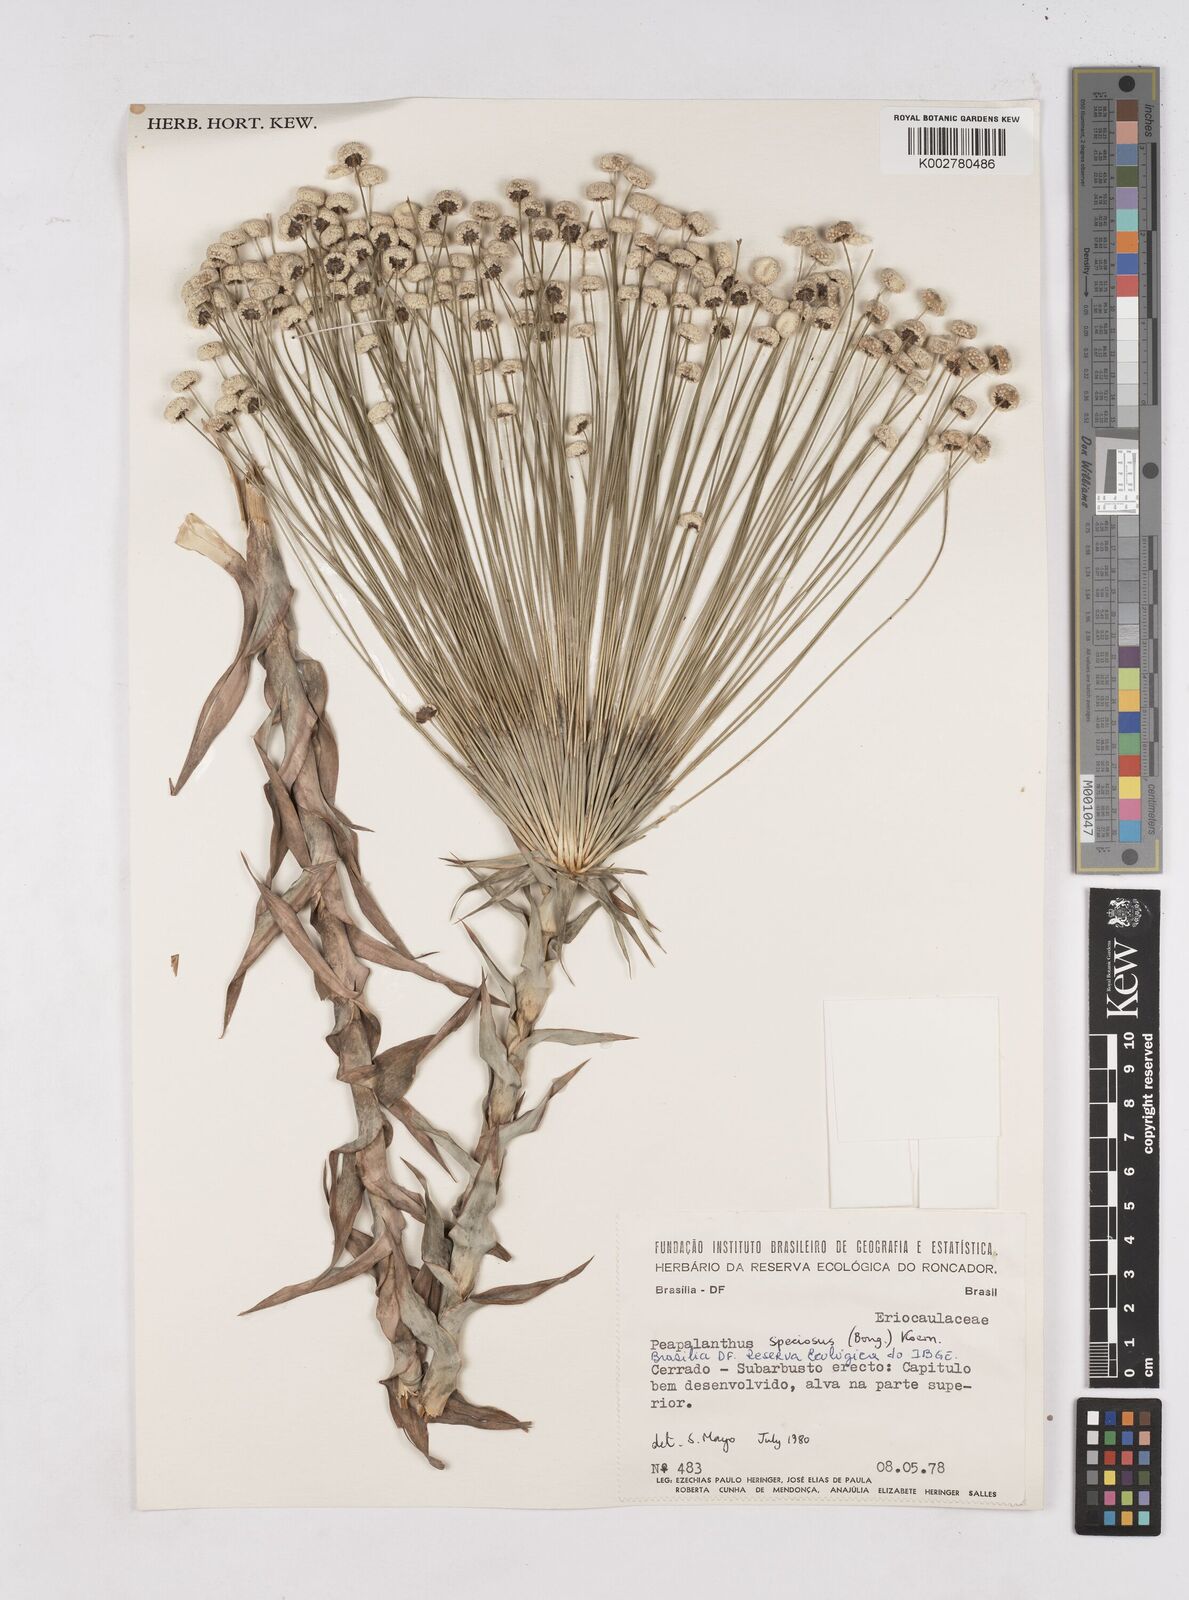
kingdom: Plantae
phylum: Tracheophyta
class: Liliopsida
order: Poales
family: Eriocaulaceae
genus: Paepalanthus
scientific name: Paepalanthus chiquitensis
